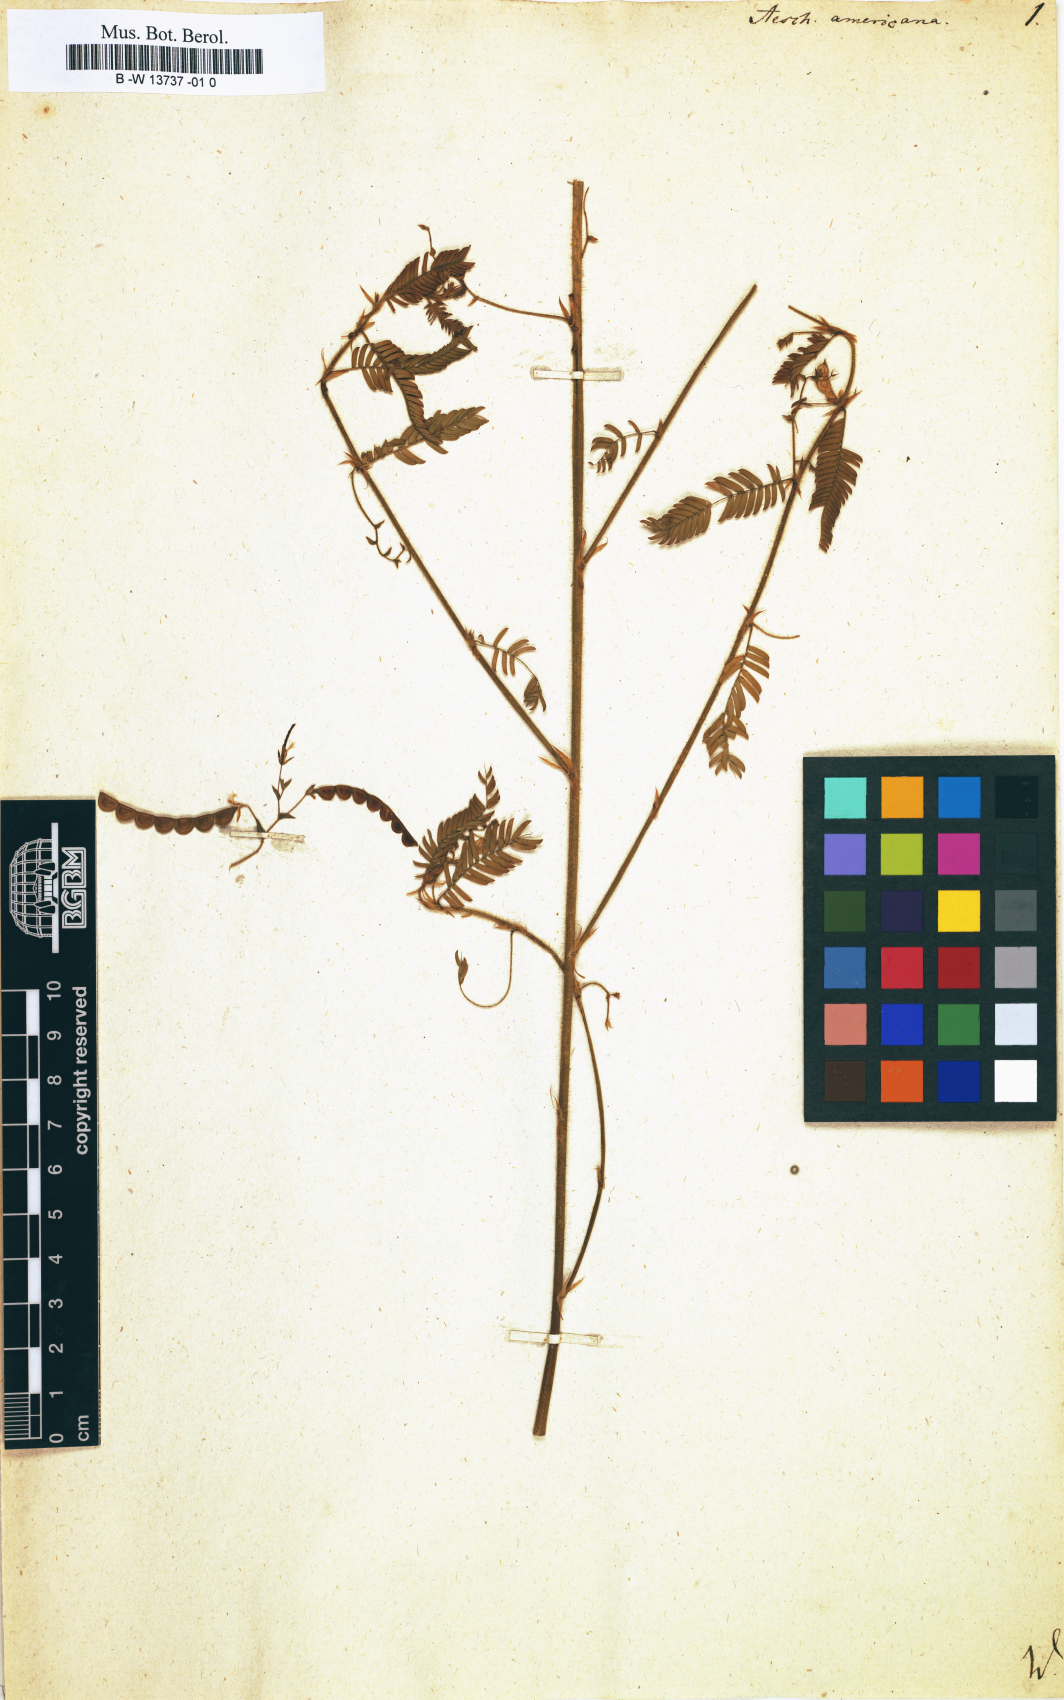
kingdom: Plantae
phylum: Tracheophyta
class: Magnoliopsida
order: Fabales
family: Fabaceae
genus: Aeschynomene
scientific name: Aeschynomene americana
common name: Joint-vetch
